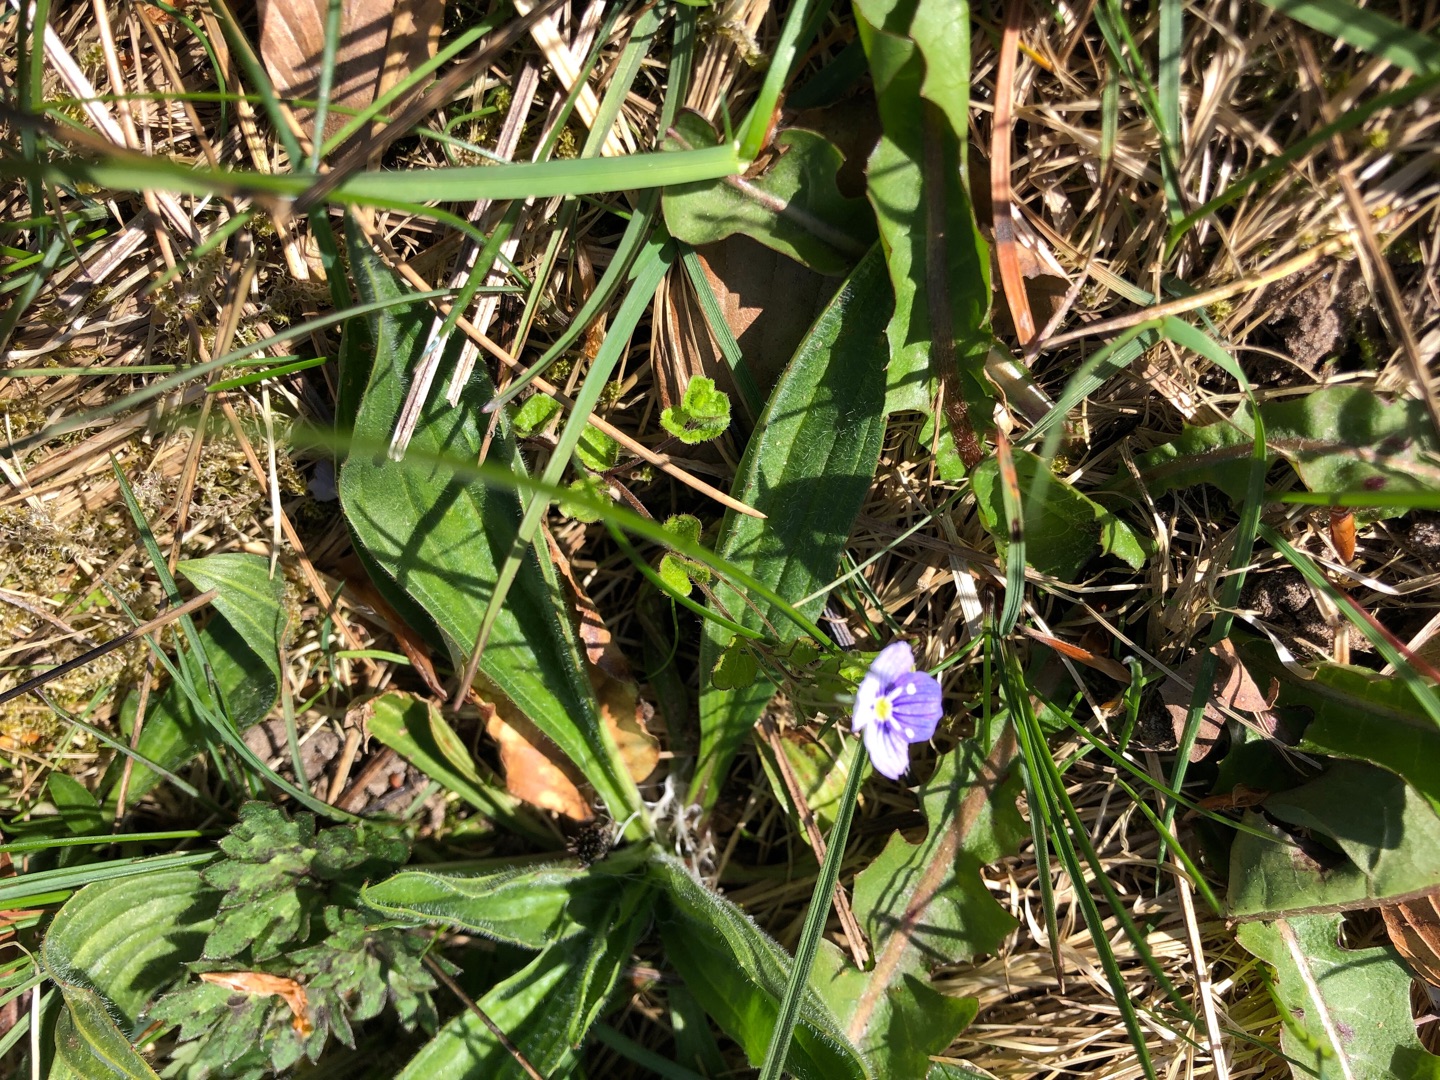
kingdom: Plantae
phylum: Tracheophyta
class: Magnoliopsida
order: Lamiales
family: Plantaginaceae
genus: Veronica
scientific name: Veronica filiformis
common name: Tråd-ærenpris
